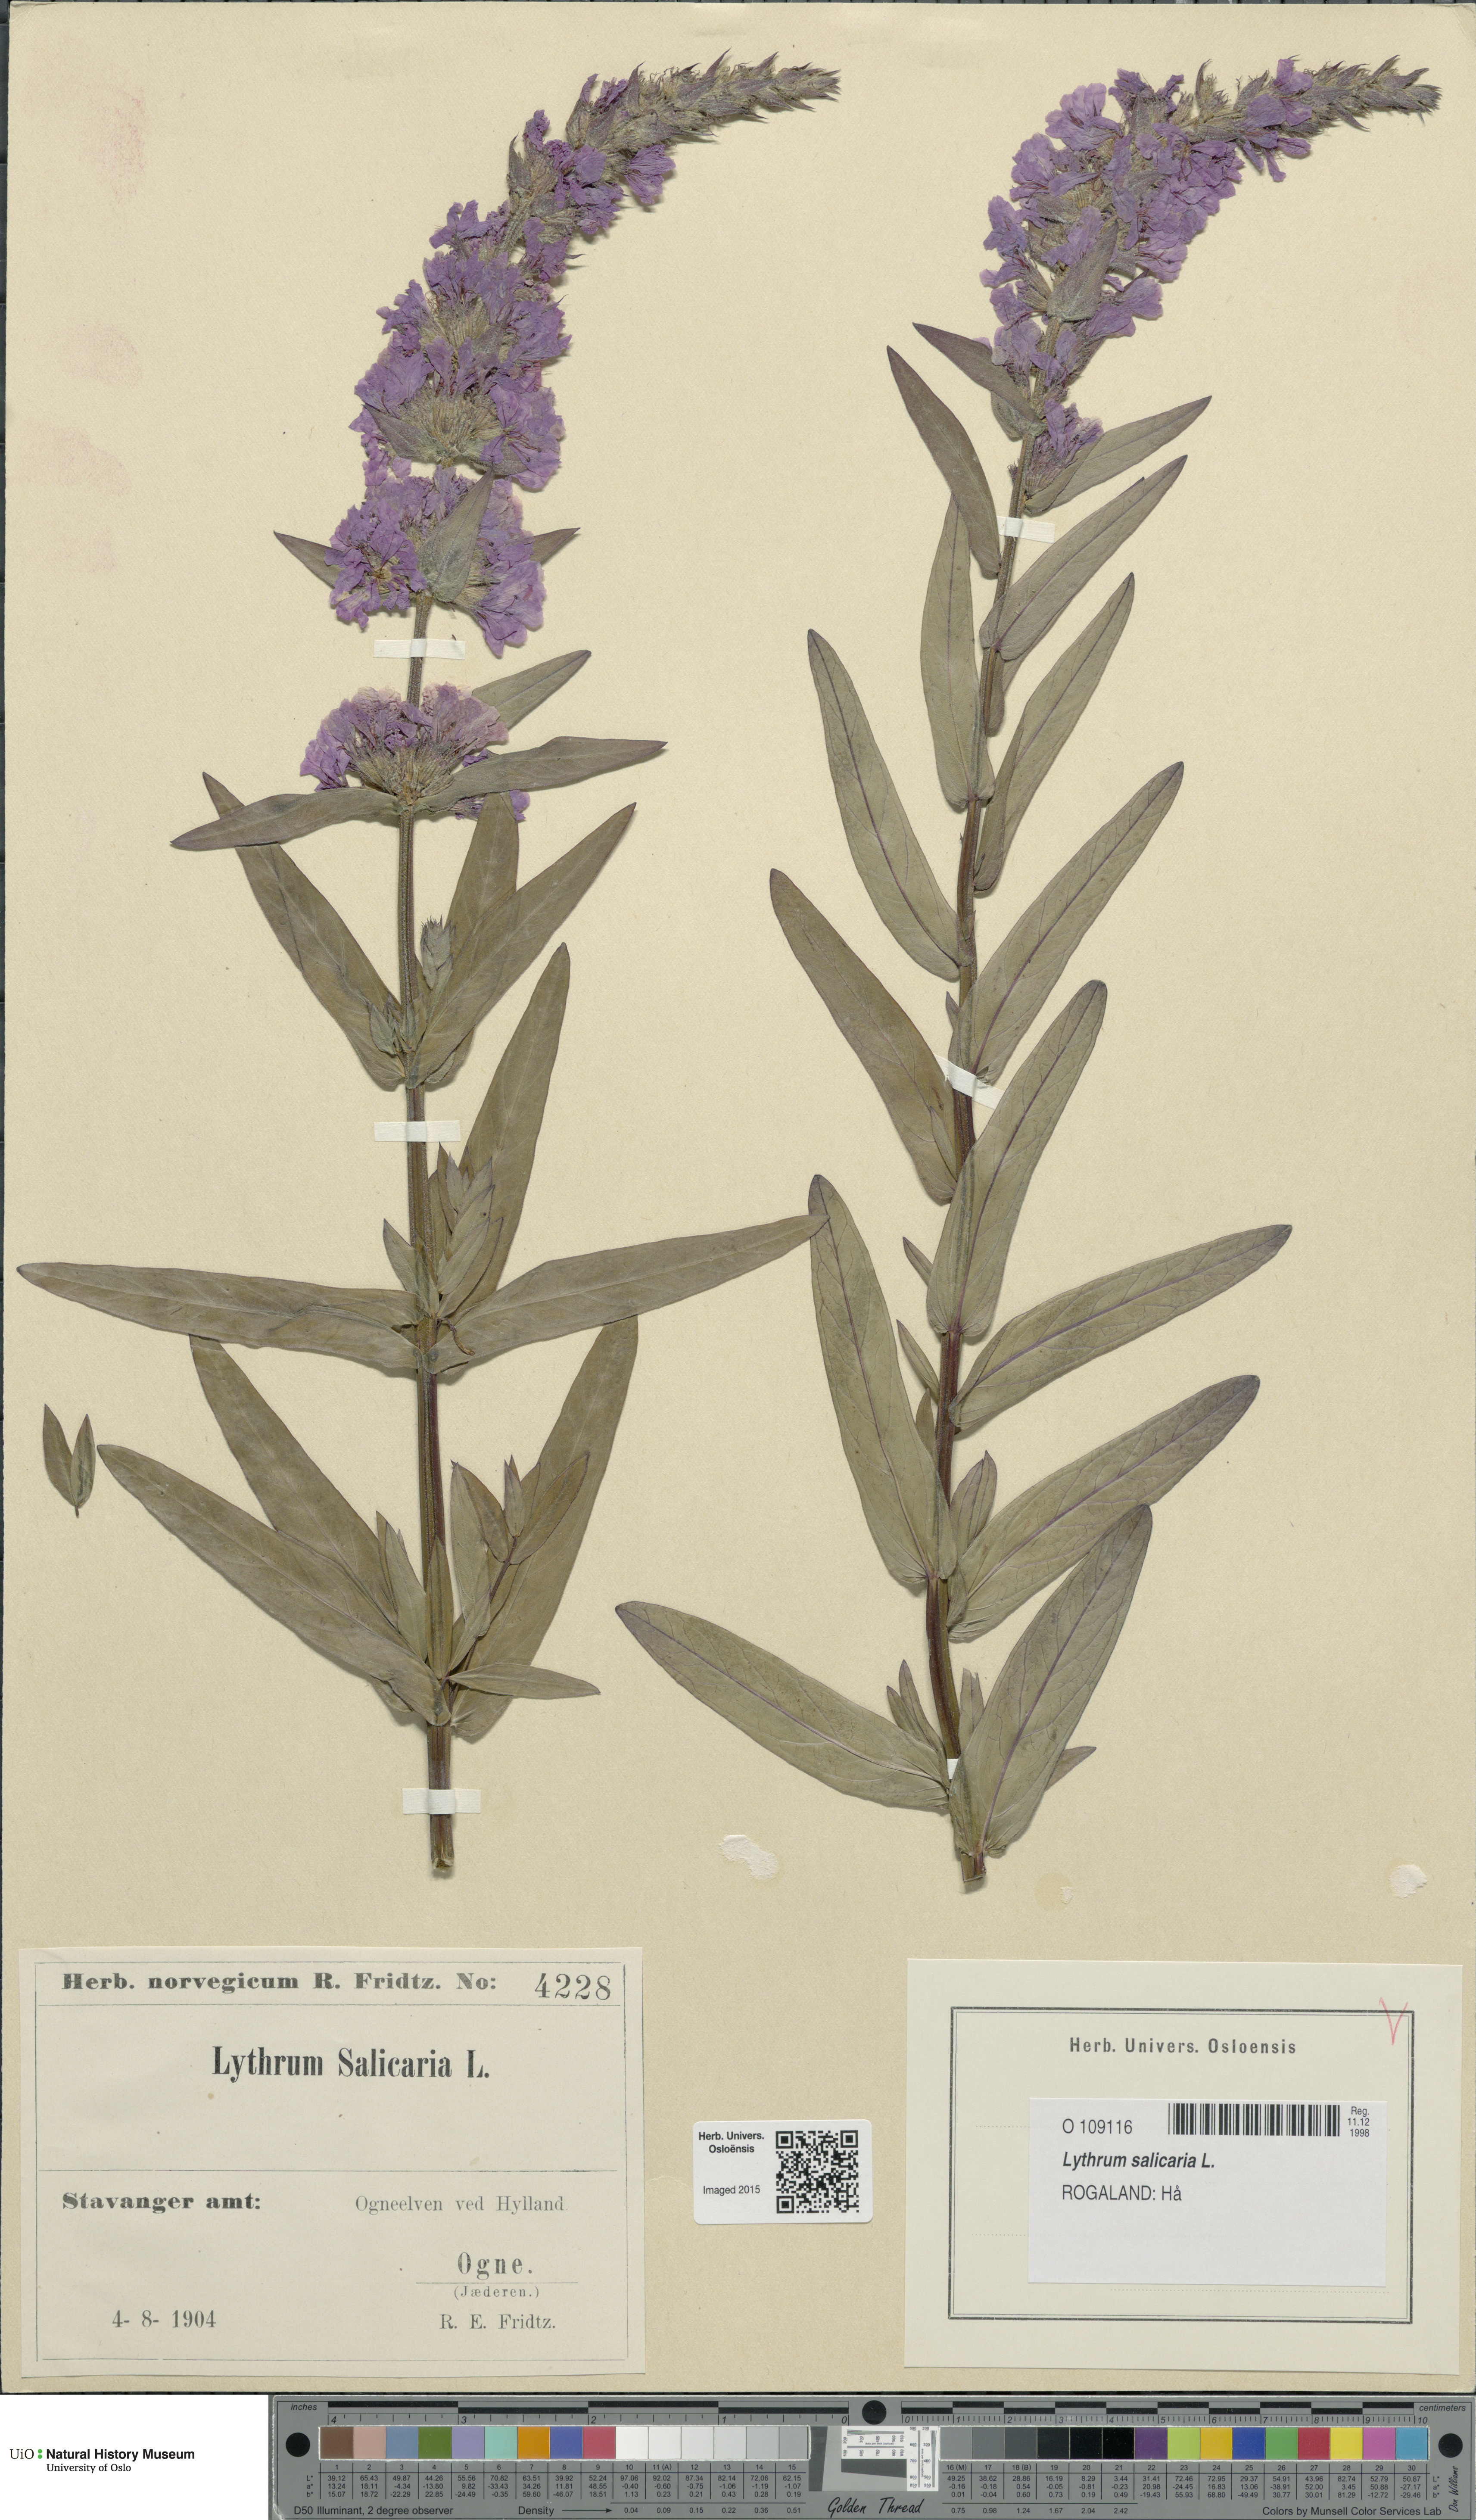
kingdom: Plantae
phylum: Tracheophyta
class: Magnoliopsida
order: Myrtales
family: Lythraceae
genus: Lythrum
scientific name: Lythrum salicaria
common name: Purple loosestrife
